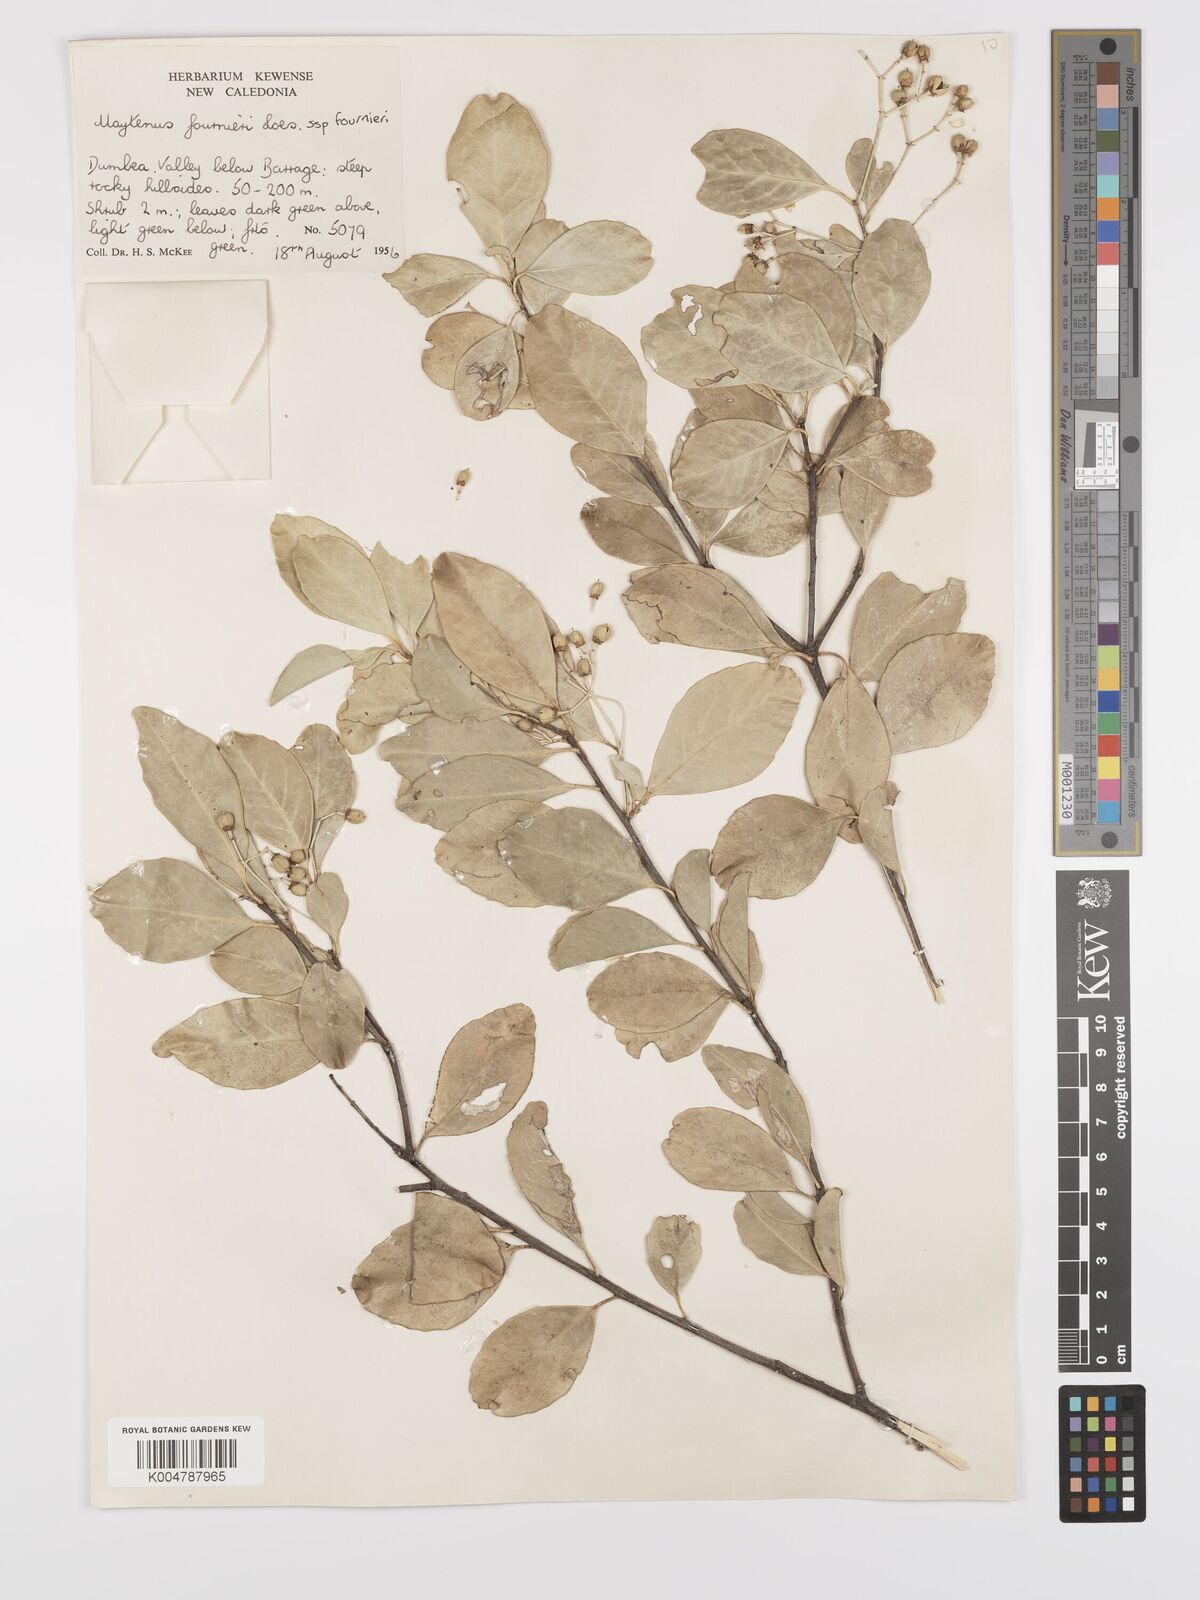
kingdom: Plantae
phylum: Tracheophyta
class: Magnoliopsida
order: Celastrales
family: Celastraceae
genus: Denhamia
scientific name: Denhamia
